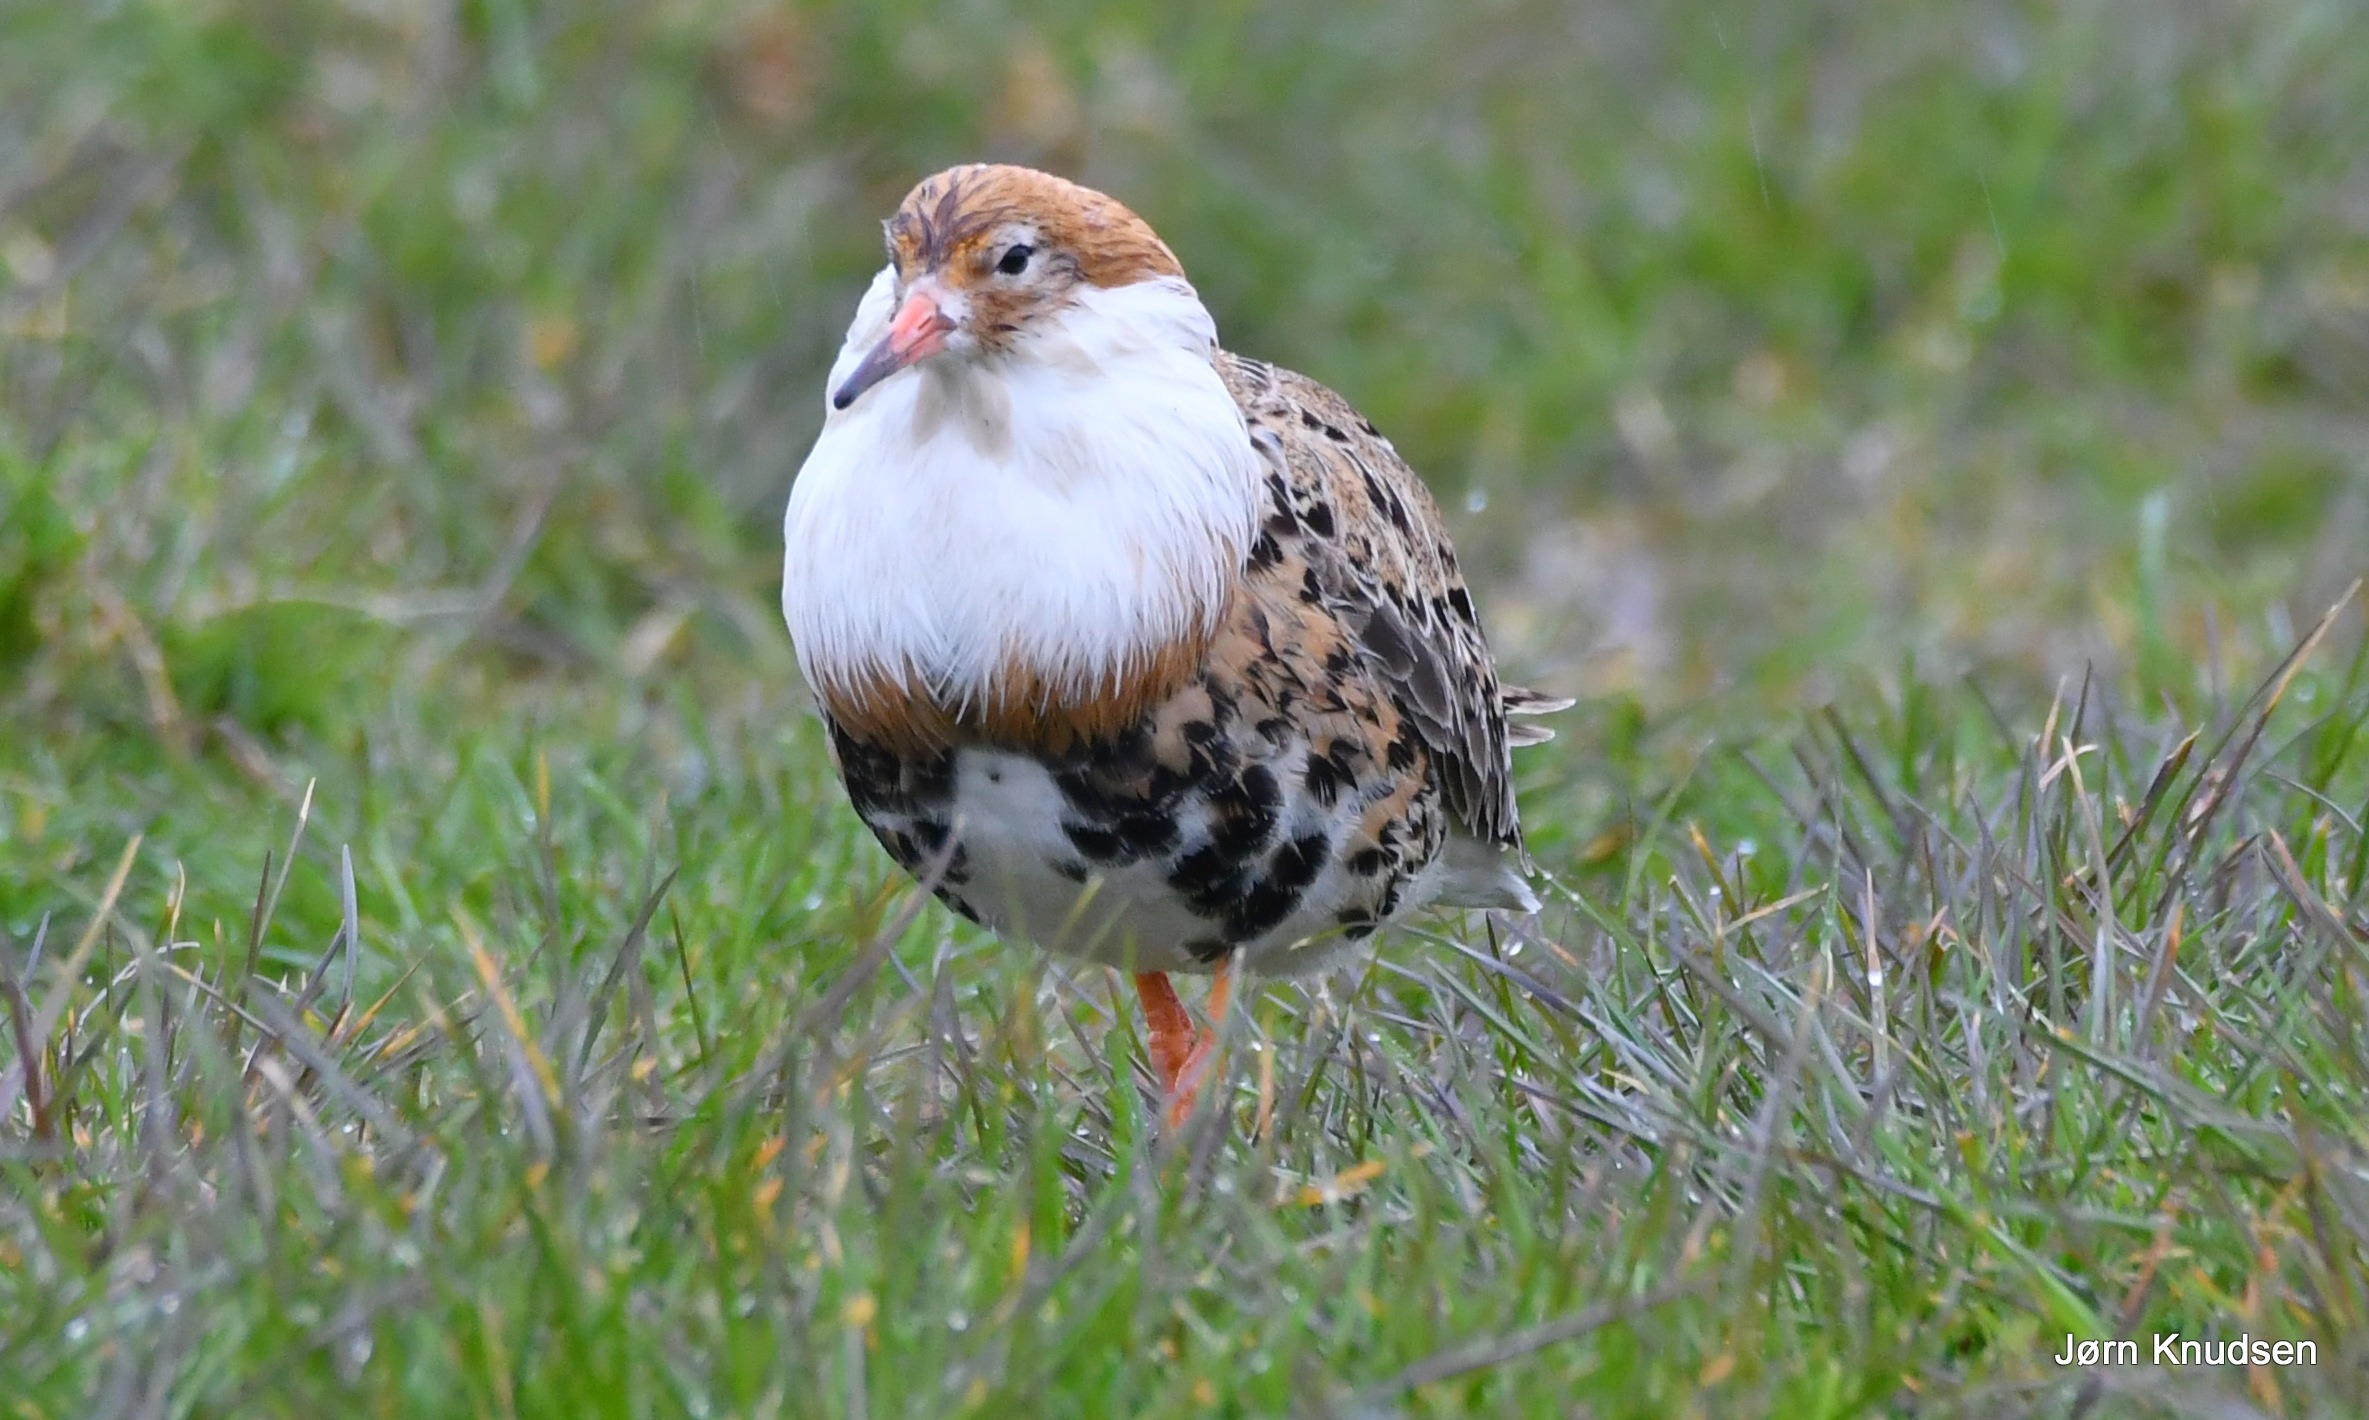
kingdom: Animalia
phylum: Chordata
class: Aves
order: Charadriiformes
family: Scolopacidae
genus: Calidris
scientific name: Calidris pugnax
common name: Brushane
